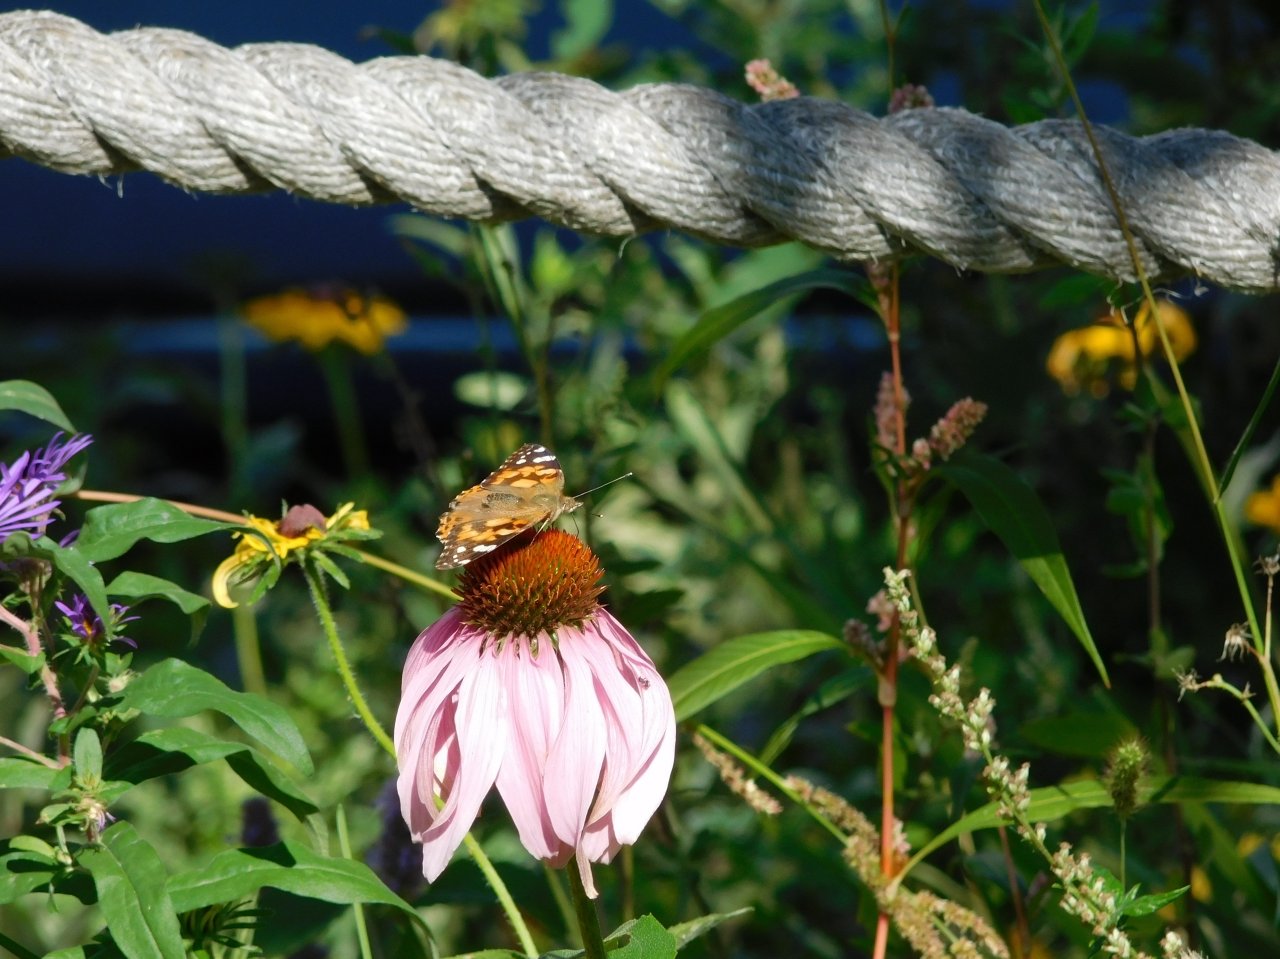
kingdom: Animalia
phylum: Arthropoda
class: Insecta
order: Lepidoptera
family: Nymphalidae
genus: Vanessa
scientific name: Vanessa cardui
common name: Painted Lady
